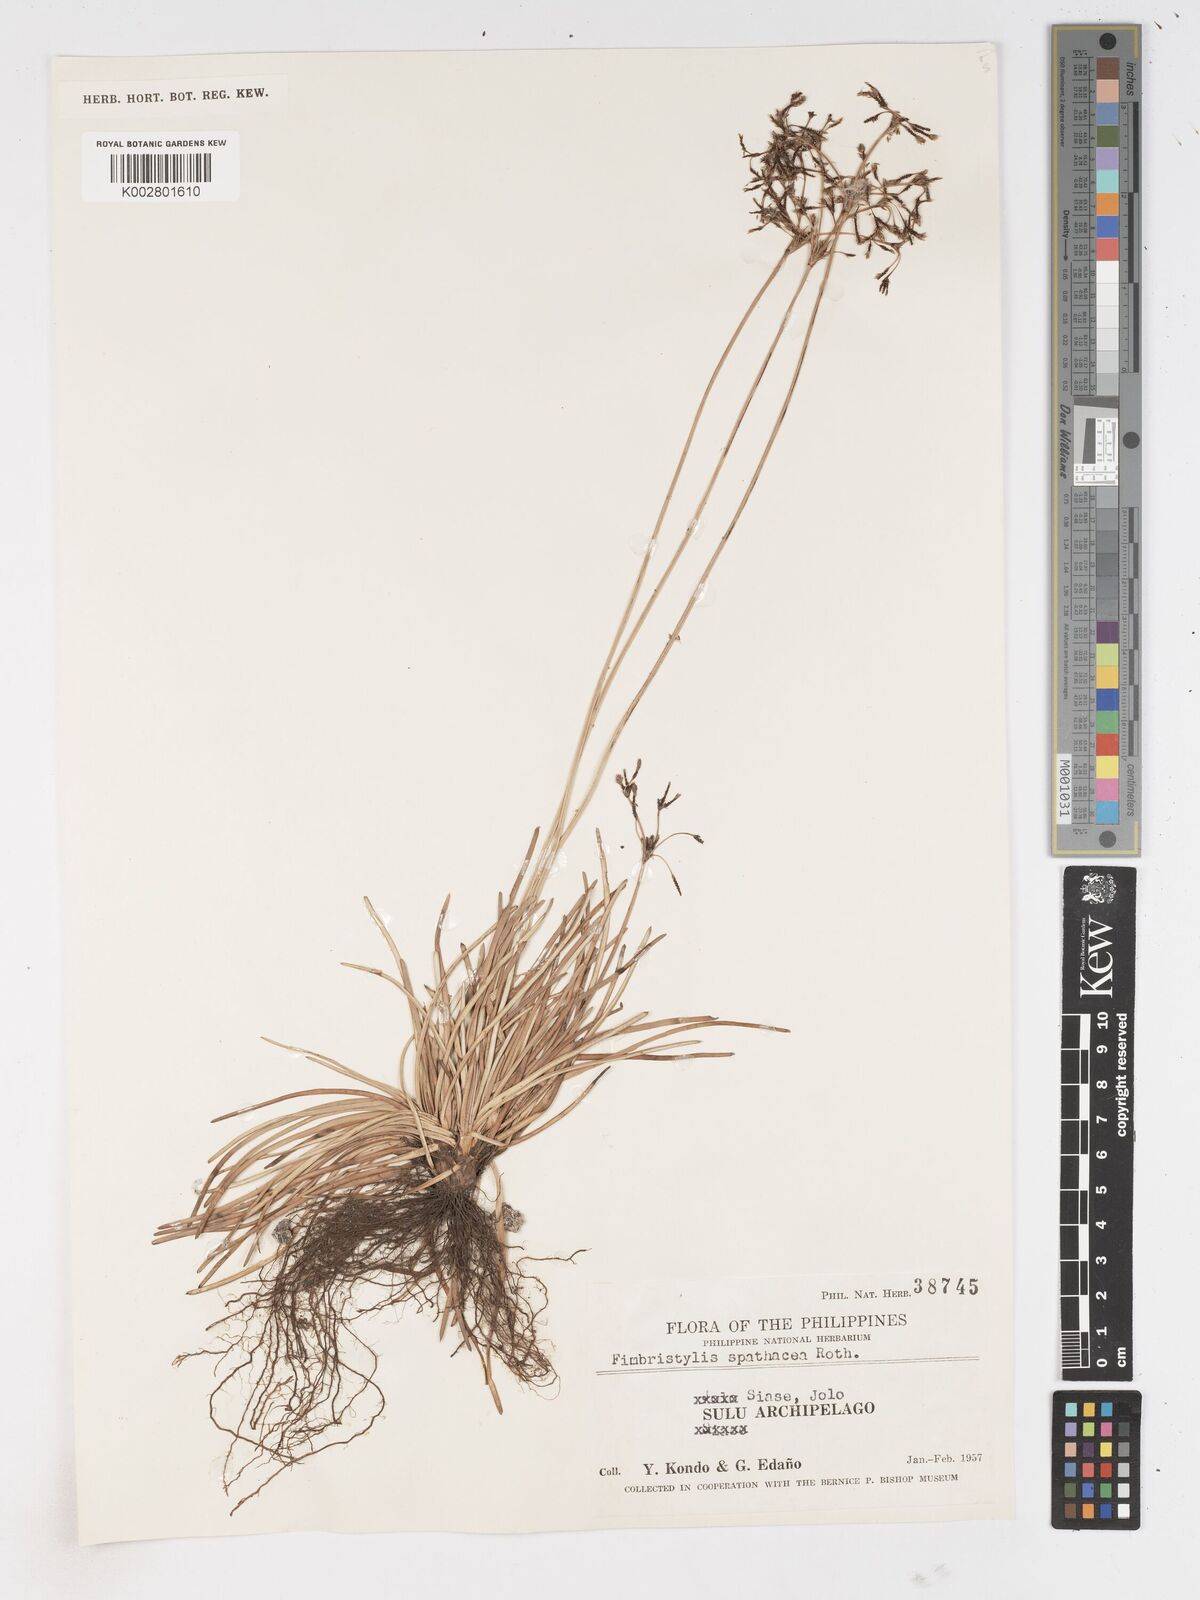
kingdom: Plantae
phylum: Tracheophyta
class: Liliopsida
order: Poales
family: Cyperaceae
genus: Fimbristylis
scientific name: Fimbristylis cymosa
